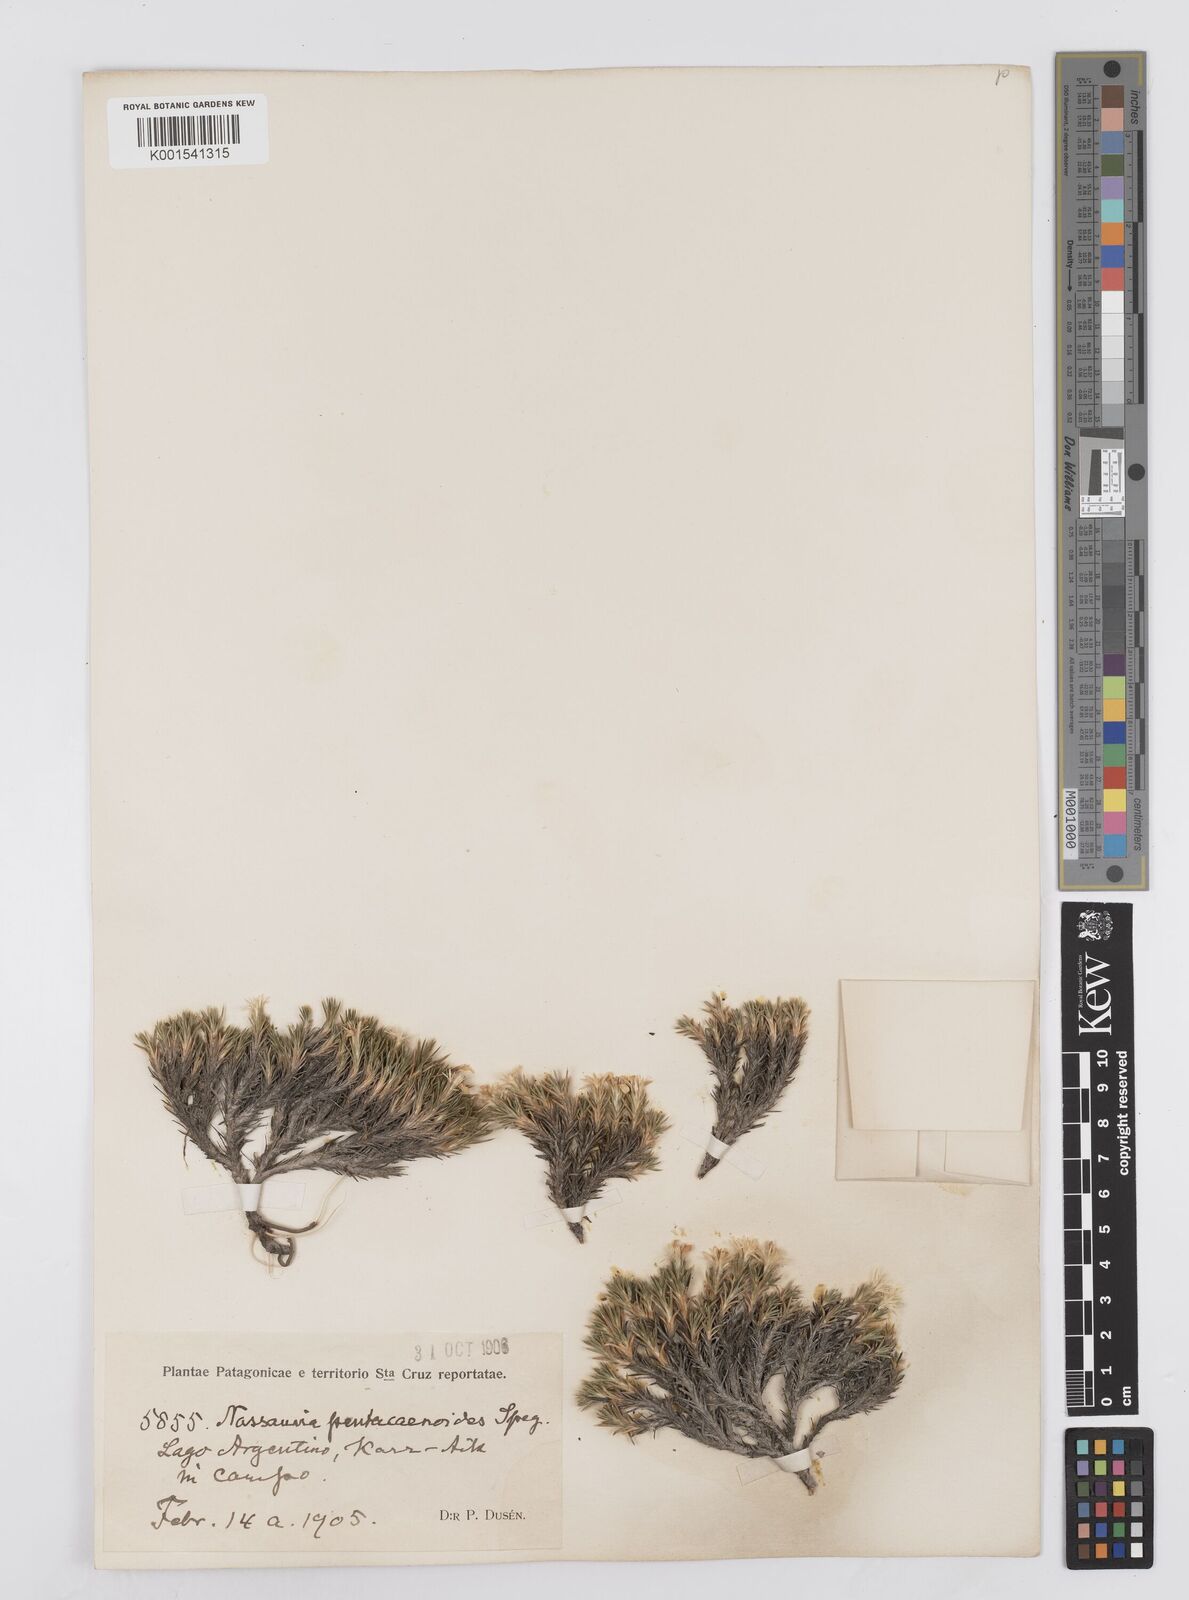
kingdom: Plantae
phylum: Tracheophyta
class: Magnoliopsida
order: Asterales
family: Asteraceae
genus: Nassauvia
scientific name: Nassauvia pentacaenoides
